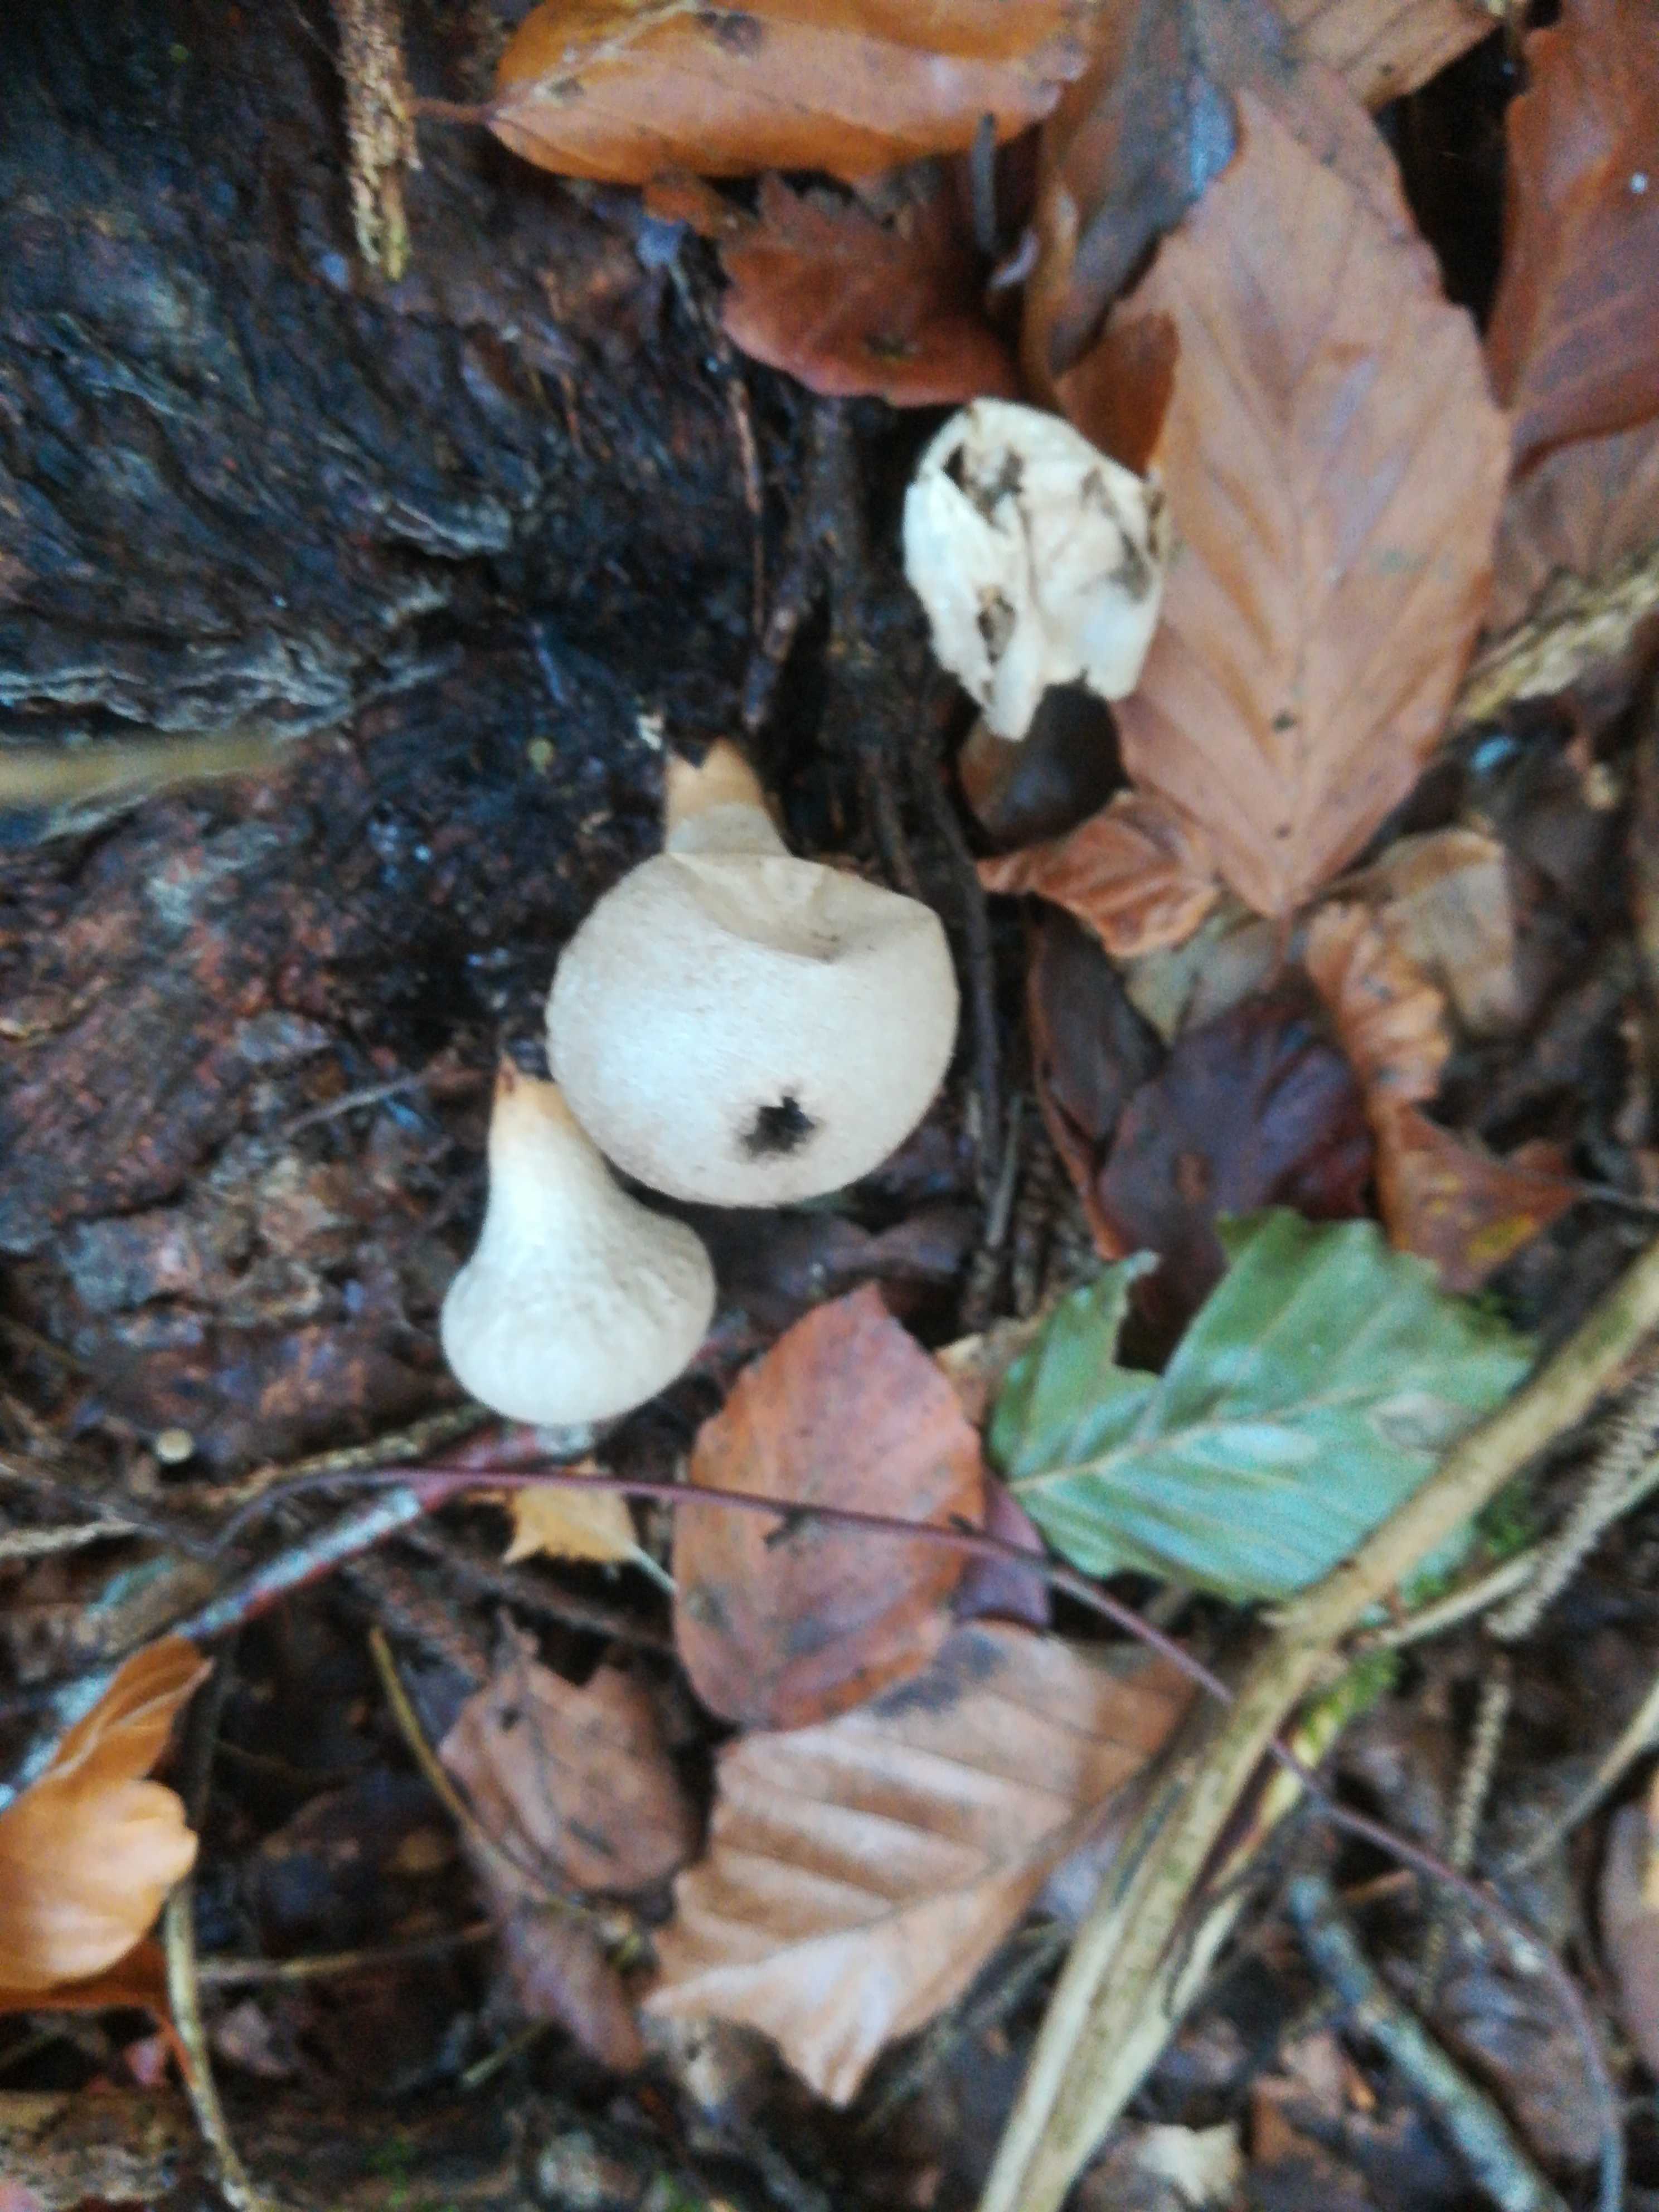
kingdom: Fungi
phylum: Basidiomycota
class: Agaricomycetes
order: Agaricales
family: Lycoperdaceae
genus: Apioperdon
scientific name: Apioperdon pyriforme
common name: pære-støvbold
